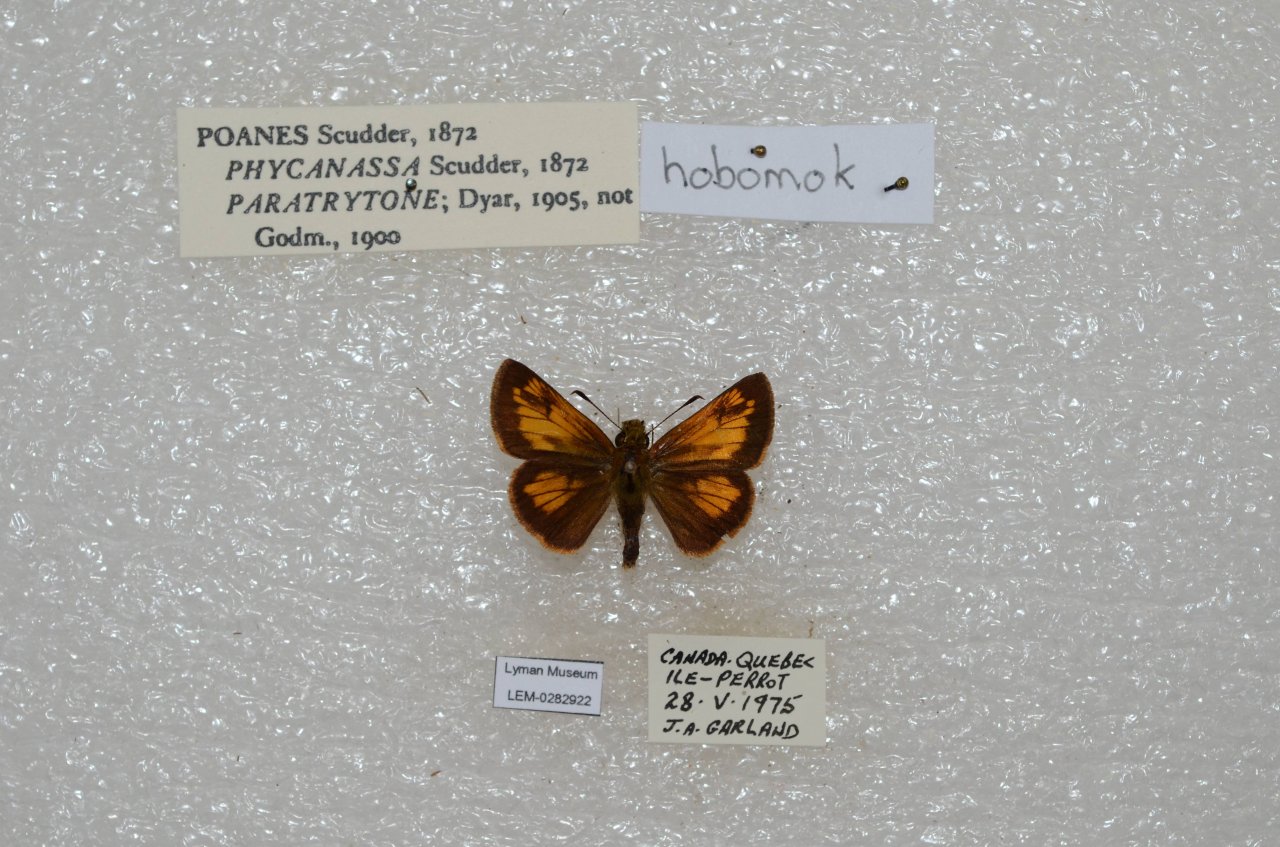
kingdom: Animalia
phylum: Arthropoda
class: Insecta
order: Lepidoptera
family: Hesperiidae
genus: Lon
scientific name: Lon hobomok
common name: Hobomok Skipper
